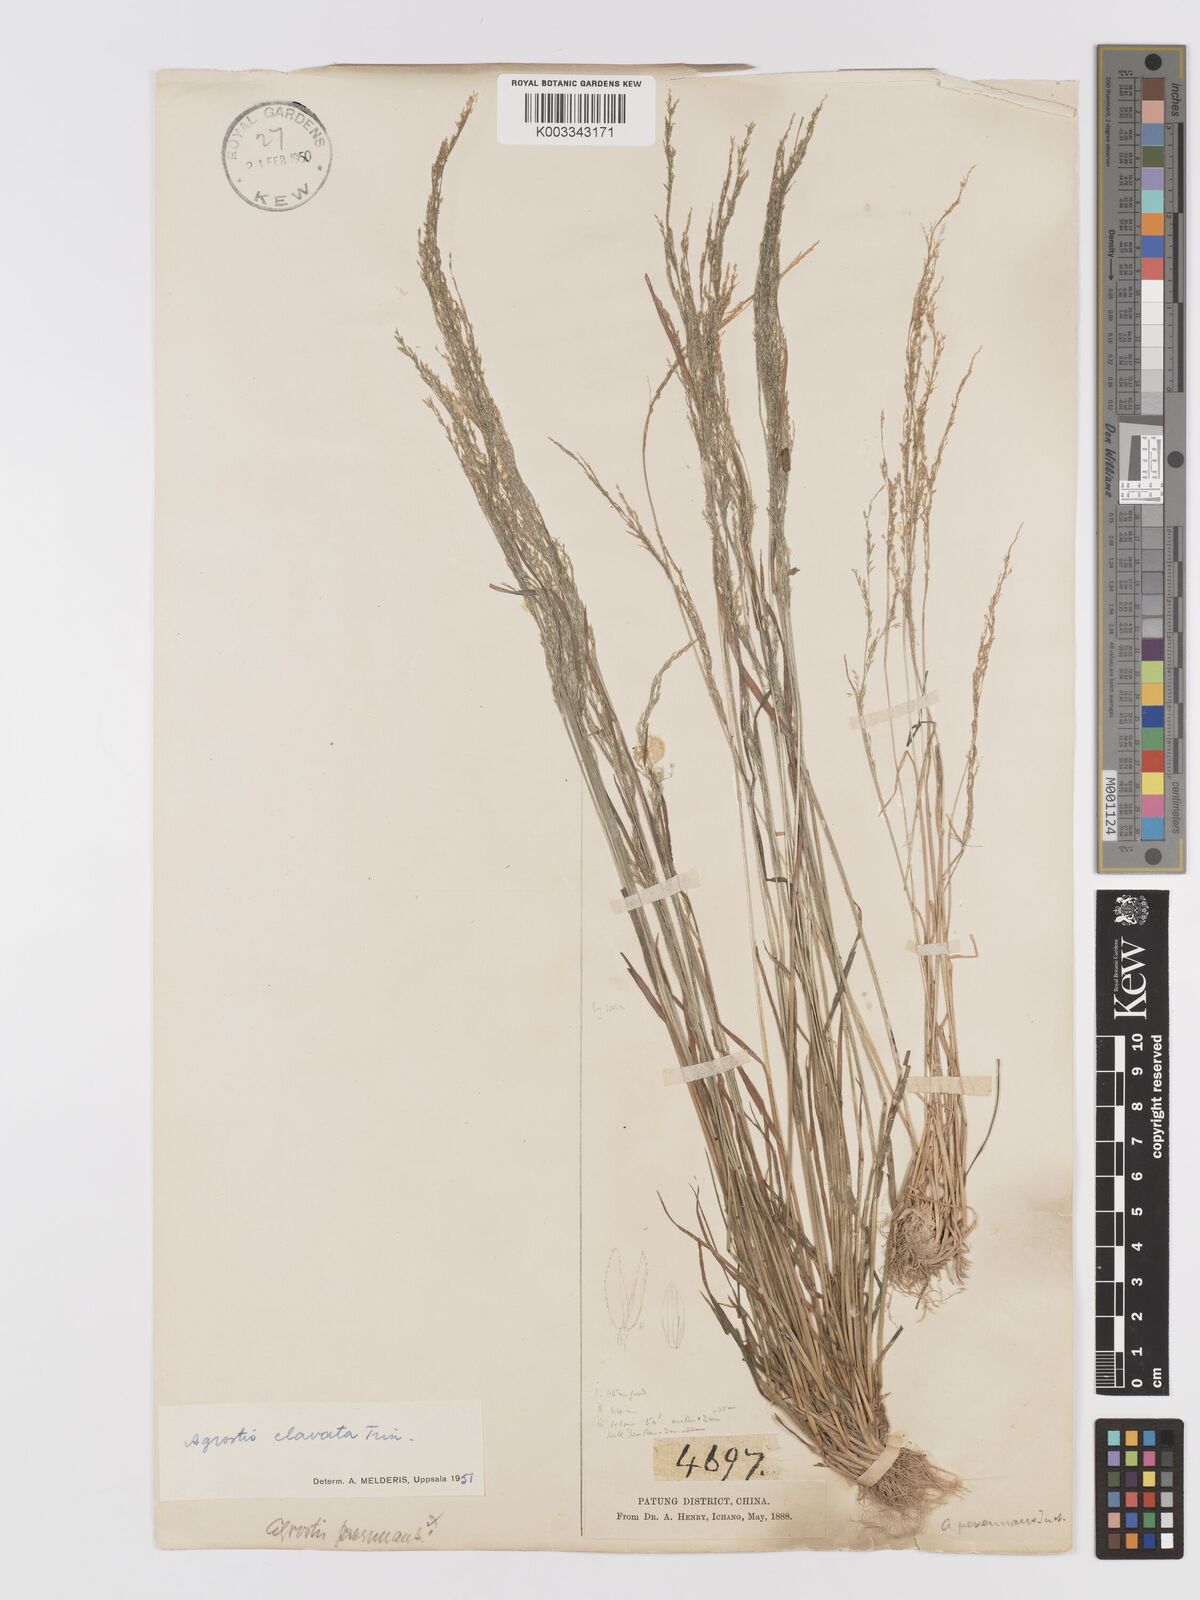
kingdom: Plantae
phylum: Tracheophyta
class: Liliopsida
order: Poales
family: Poaceae
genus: Agrostis
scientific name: Agrostis clavata
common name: Clavate bent
